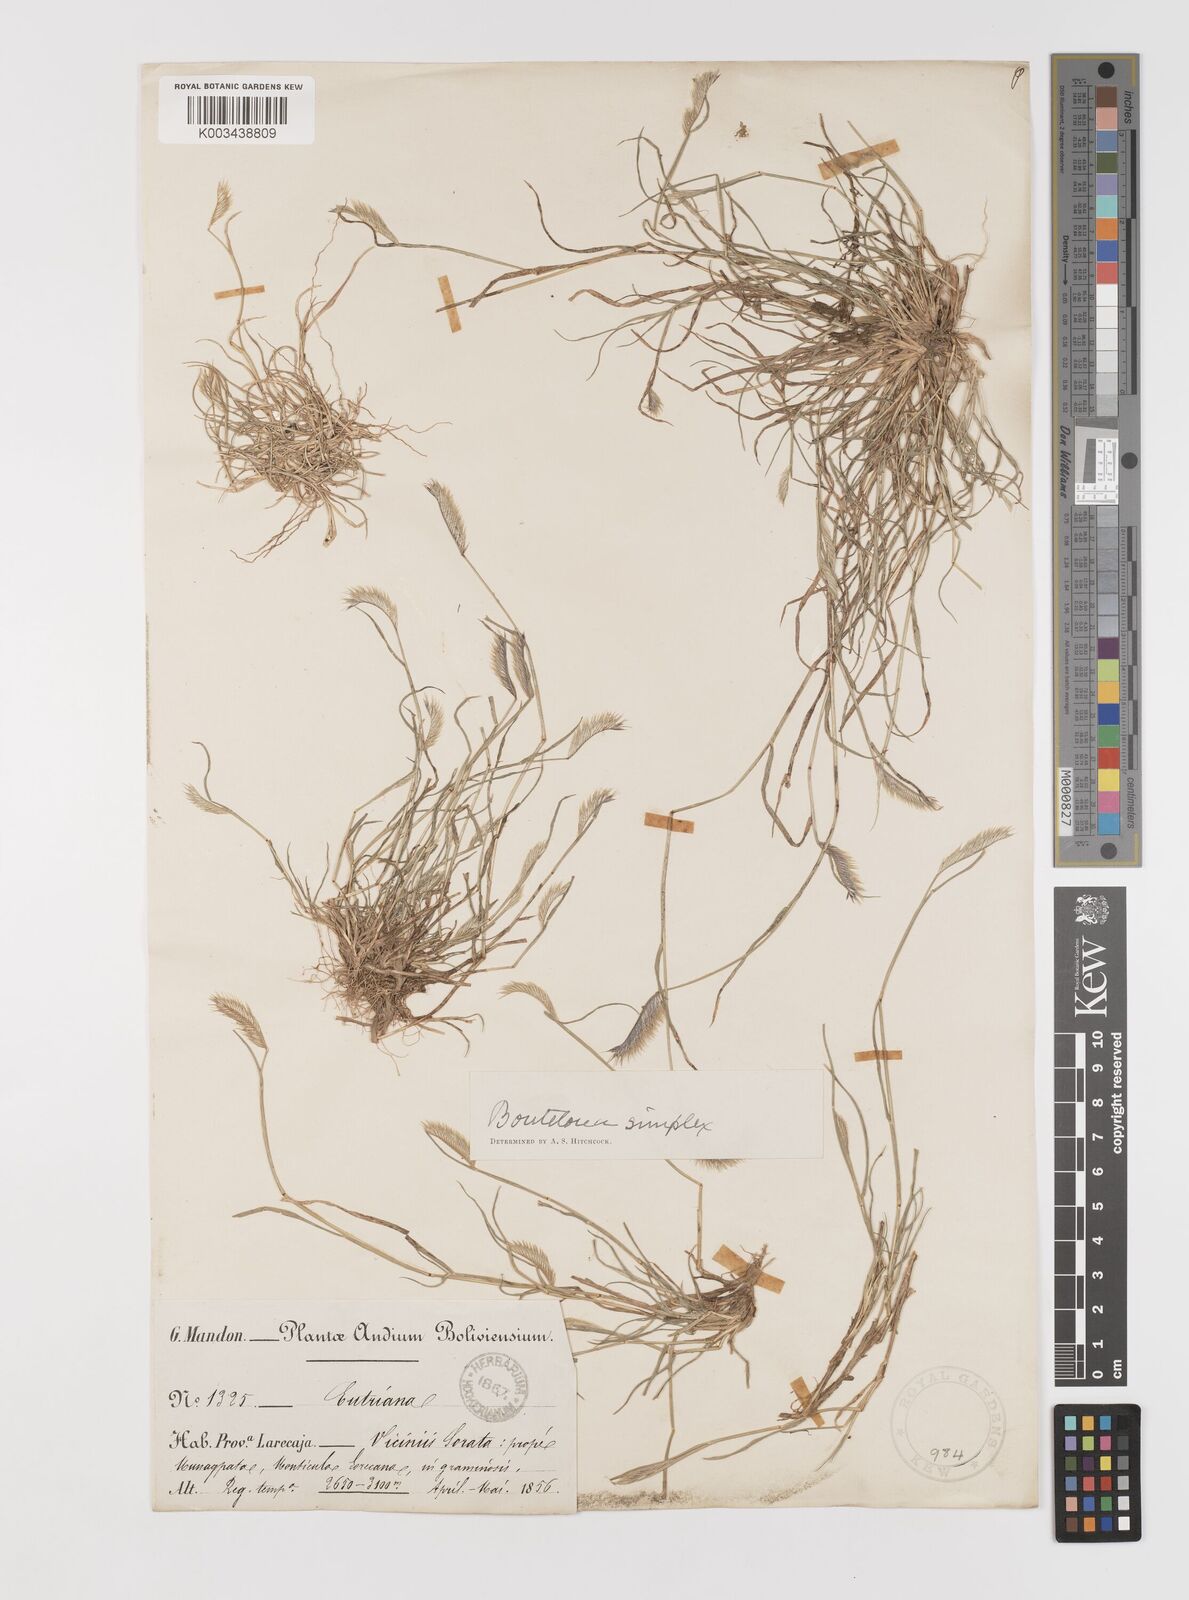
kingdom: Plantae
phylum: Tracheophyta
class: Liliopsida
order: Poales
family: Poaceae
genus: Bouteloua
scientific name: Bouteloua simplex
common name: Mat grama
